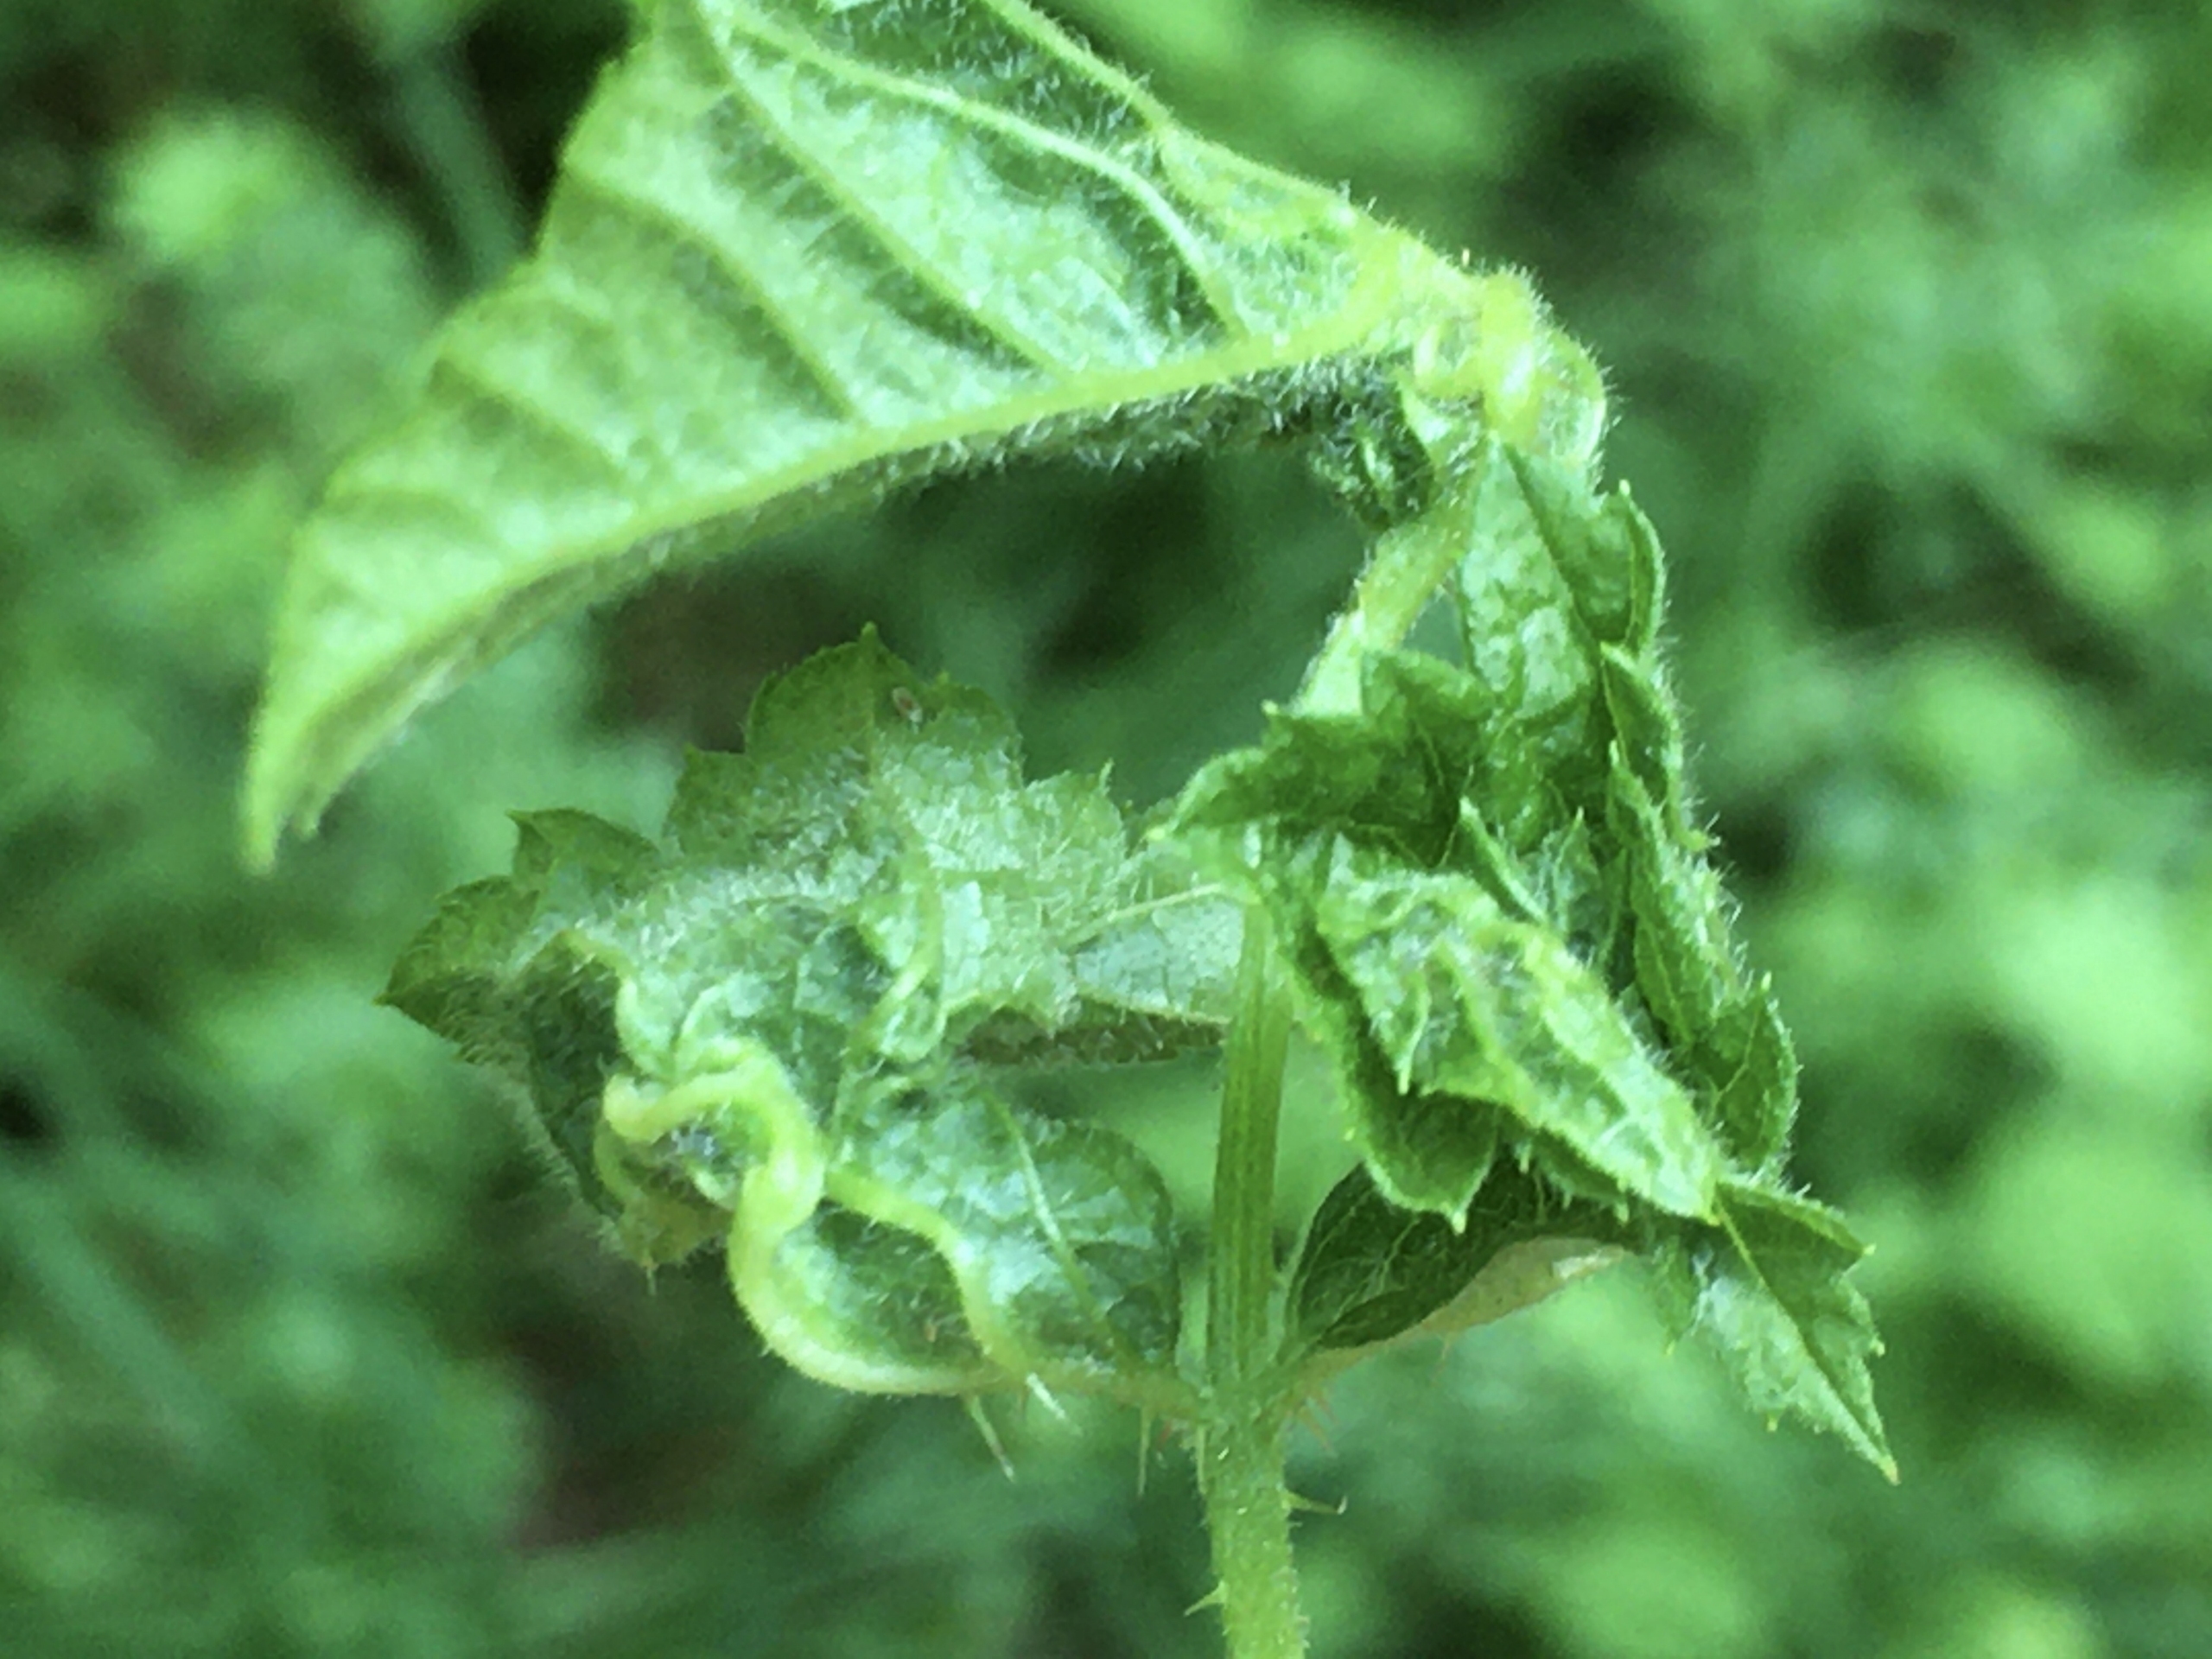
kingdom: Animalia
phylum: Arthropoda
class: Insecta
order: Diptera
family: Cecidomyiidae
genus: Dasineura
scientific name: Dasineura plicatrix
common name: Brombærbladgalmyg
